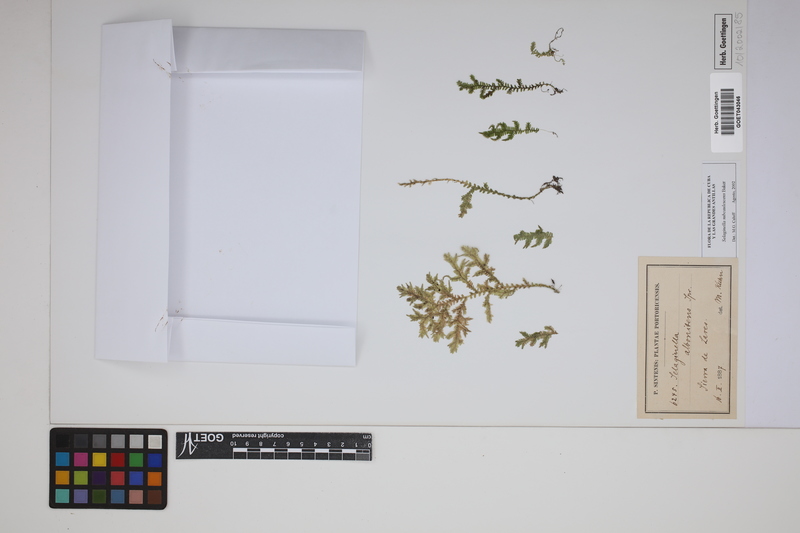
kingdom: Plantae
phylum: Tracheophyta
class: Lycopodiopsida
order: Selaginellales
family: Selaginellaceae
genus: Selaginella
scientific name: Selaginella involvens
